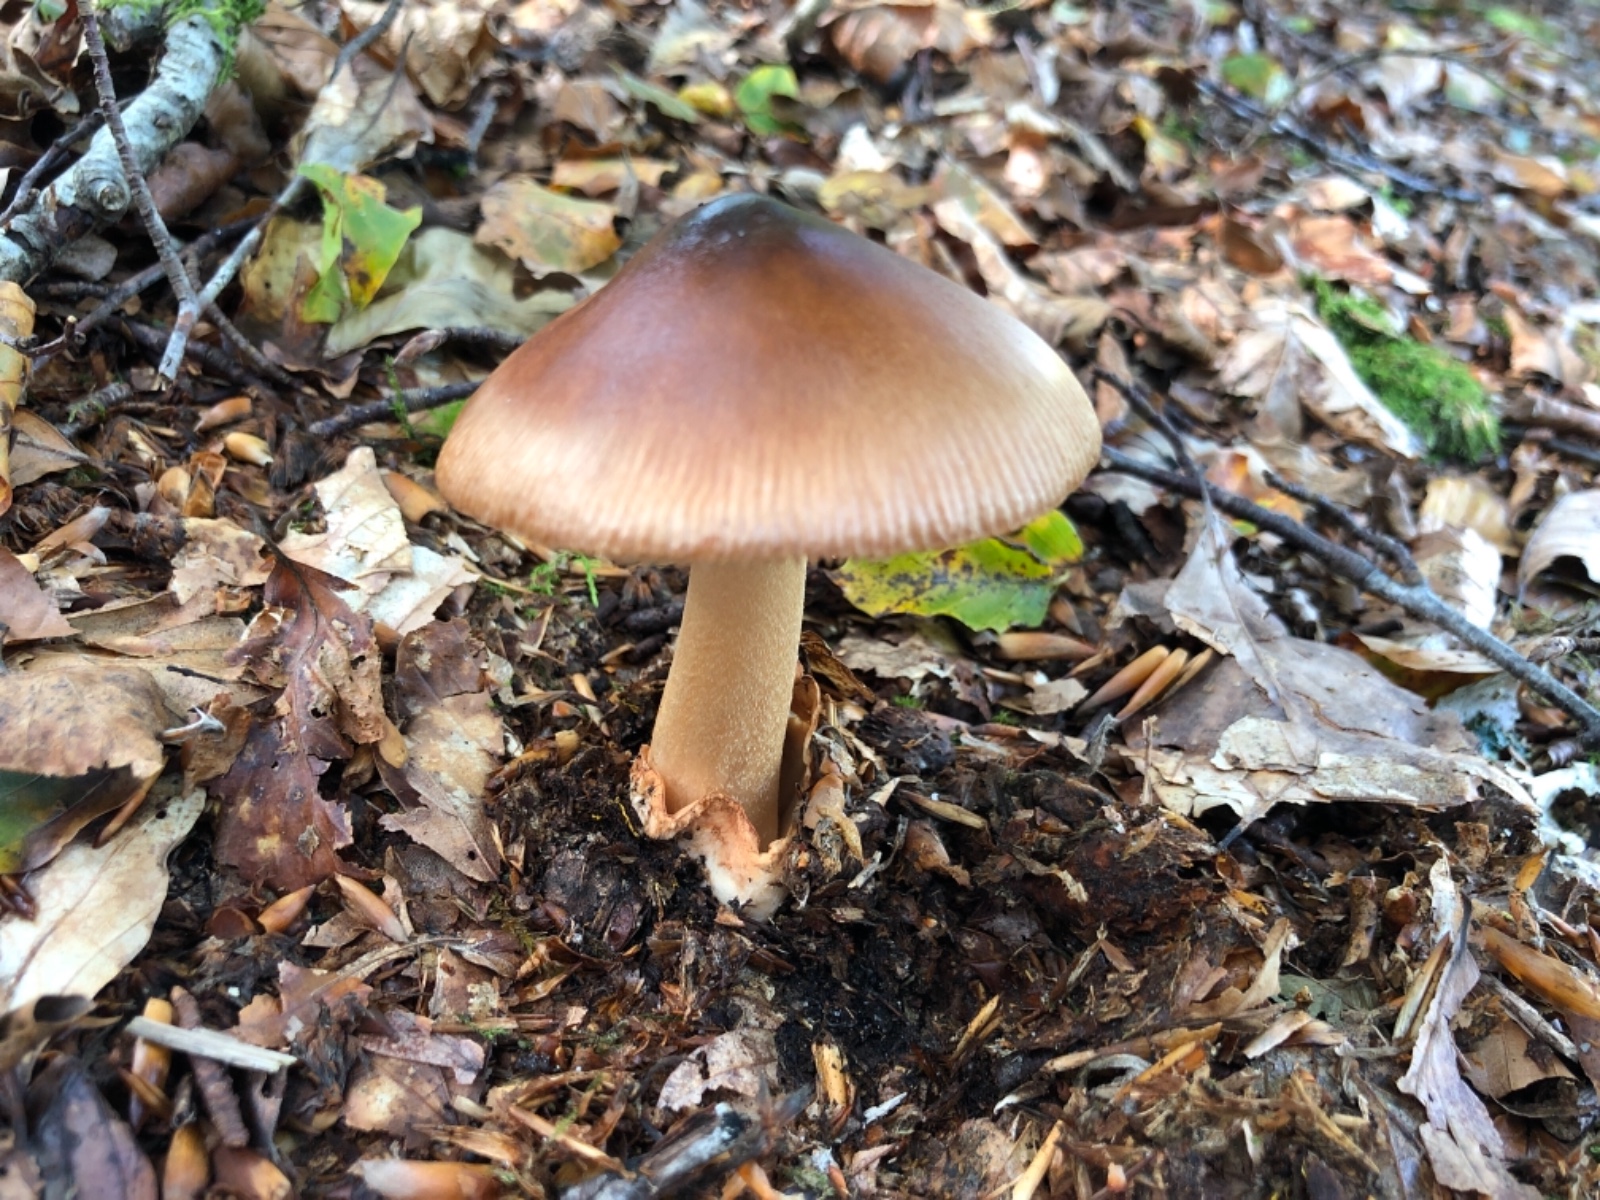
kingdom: Fungi
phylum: Basidiomycota
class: Agaricomycetes
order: Agaricales
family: Amanitaceae
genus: Amanita
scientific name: Amanita fulva
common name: brun kam-fluesvamp
